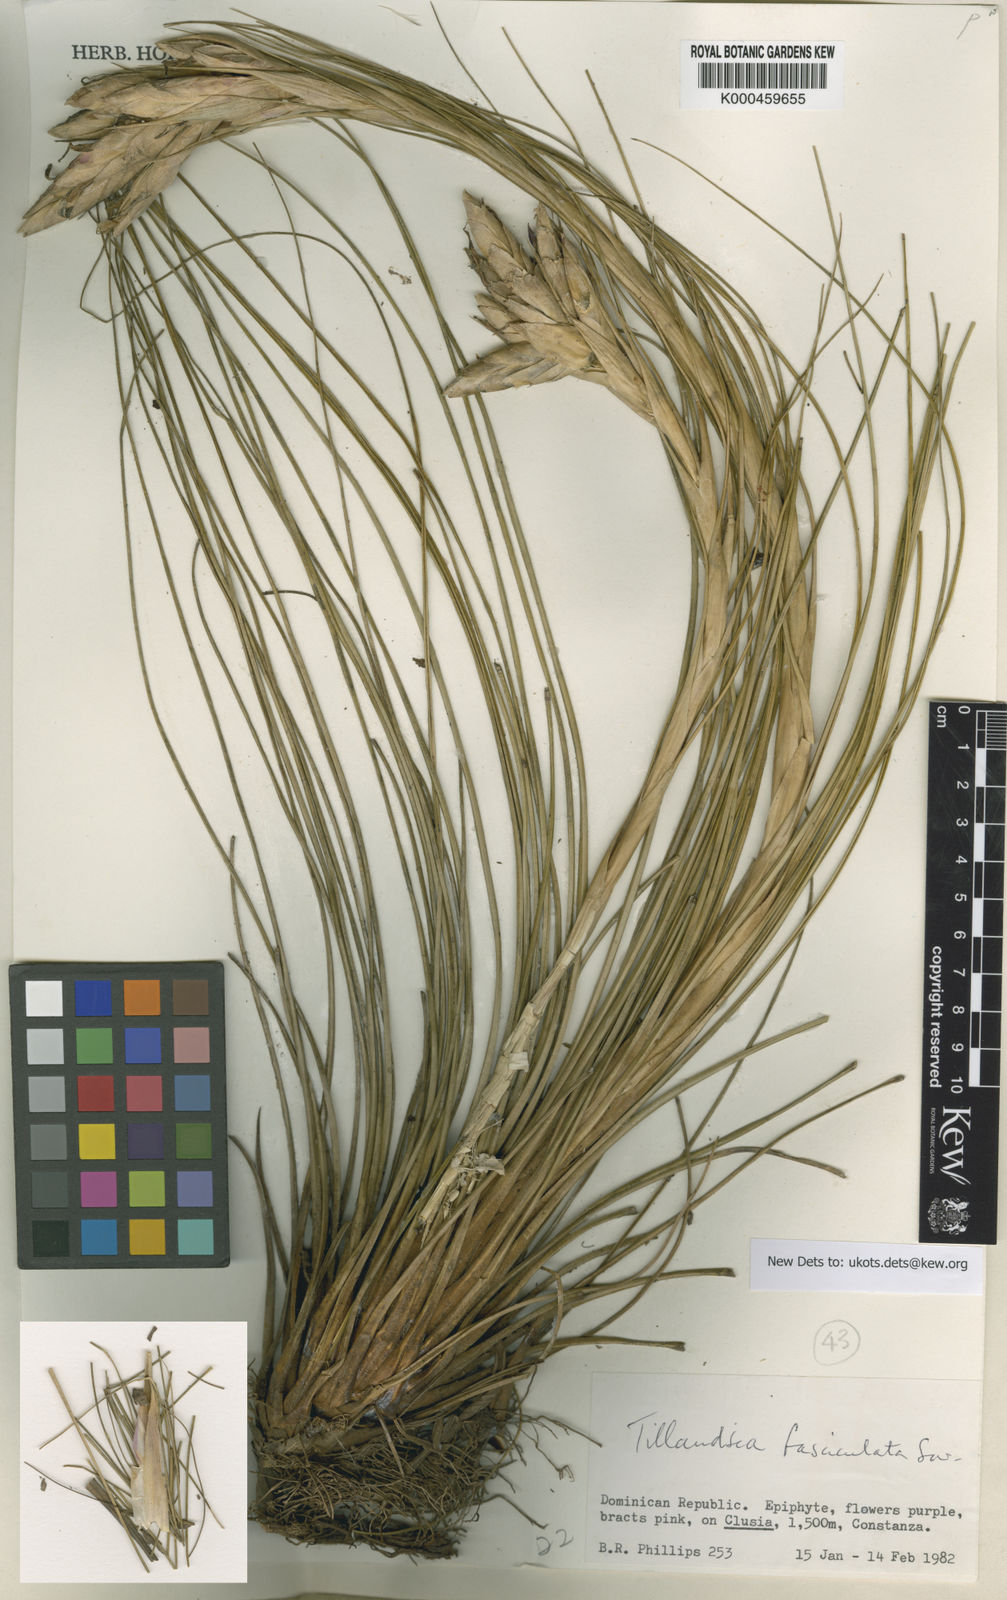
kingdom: Plantae
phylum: Tracheophyta
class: Liliopsida
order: Poales
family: Bromeliaceae
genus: Tillandsia
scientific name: Tillandsia
